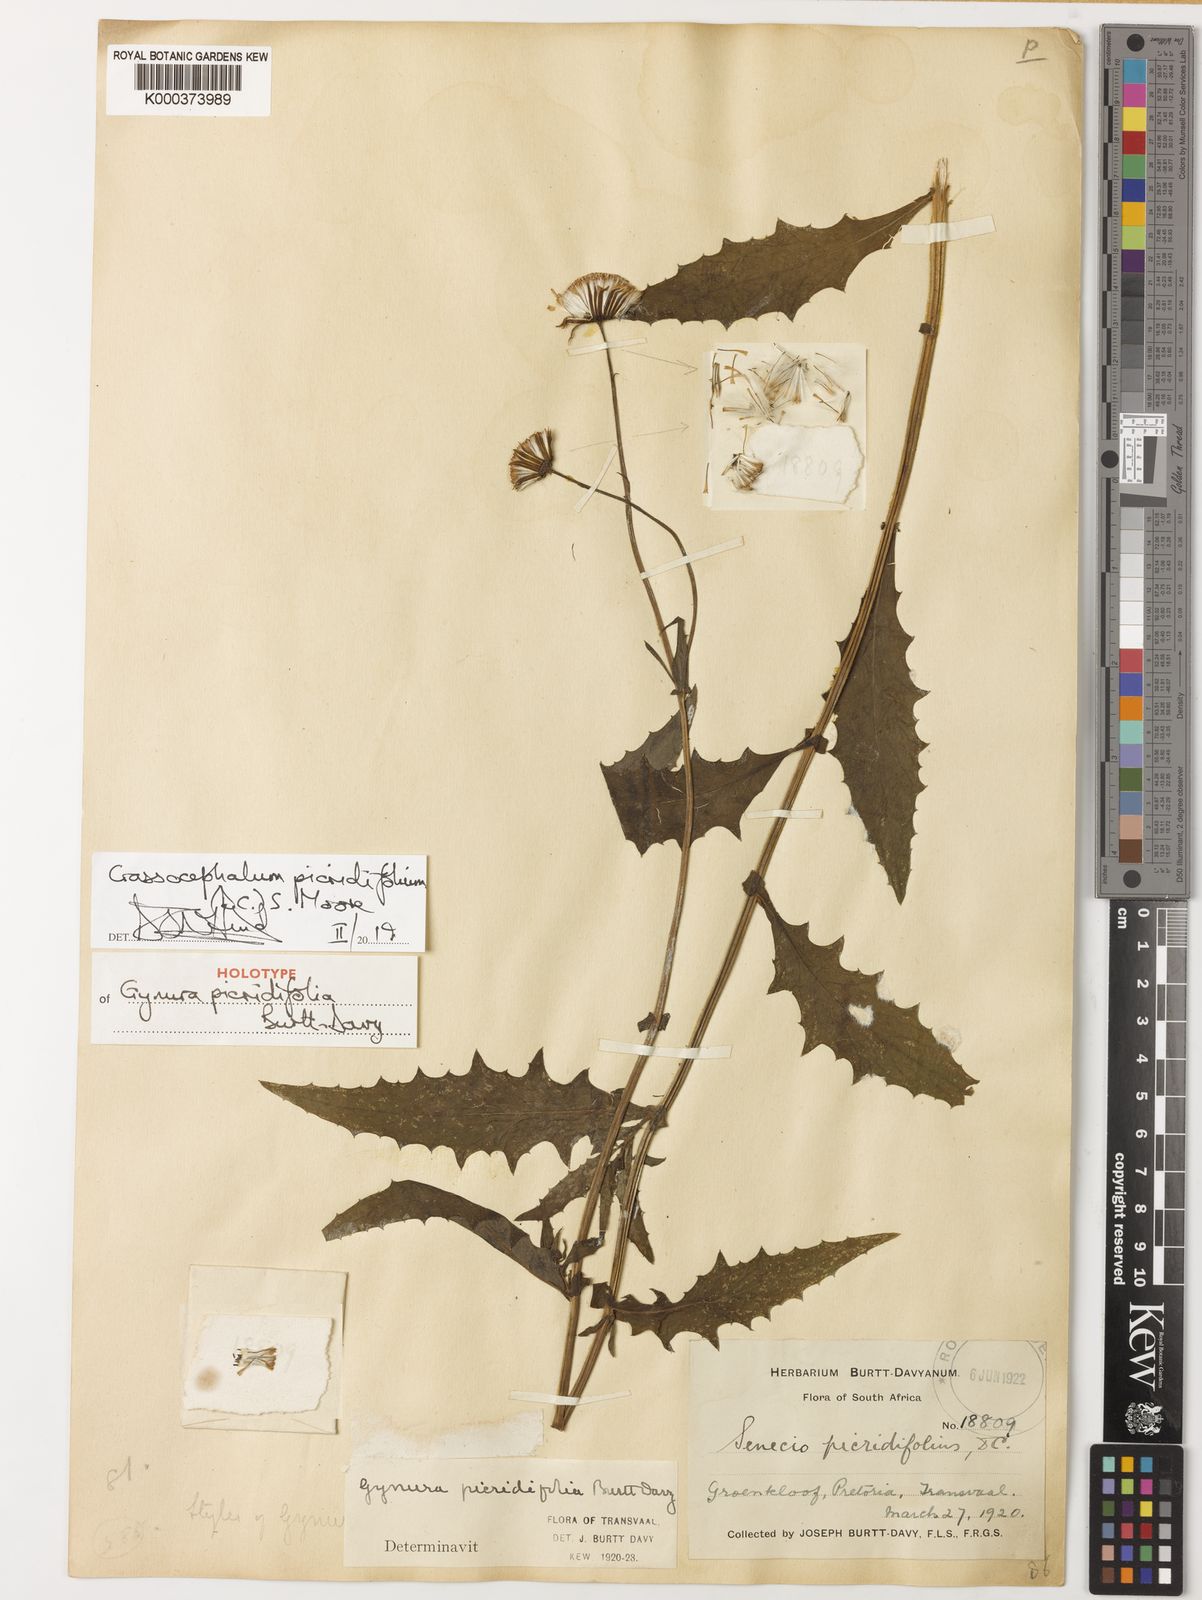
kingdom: Plantae
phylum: Tracheophyta
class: Magnoliopsida
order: Asterales
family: Asteraceae
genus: Crassocephalum
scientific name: Crassocephalum picridifolium
